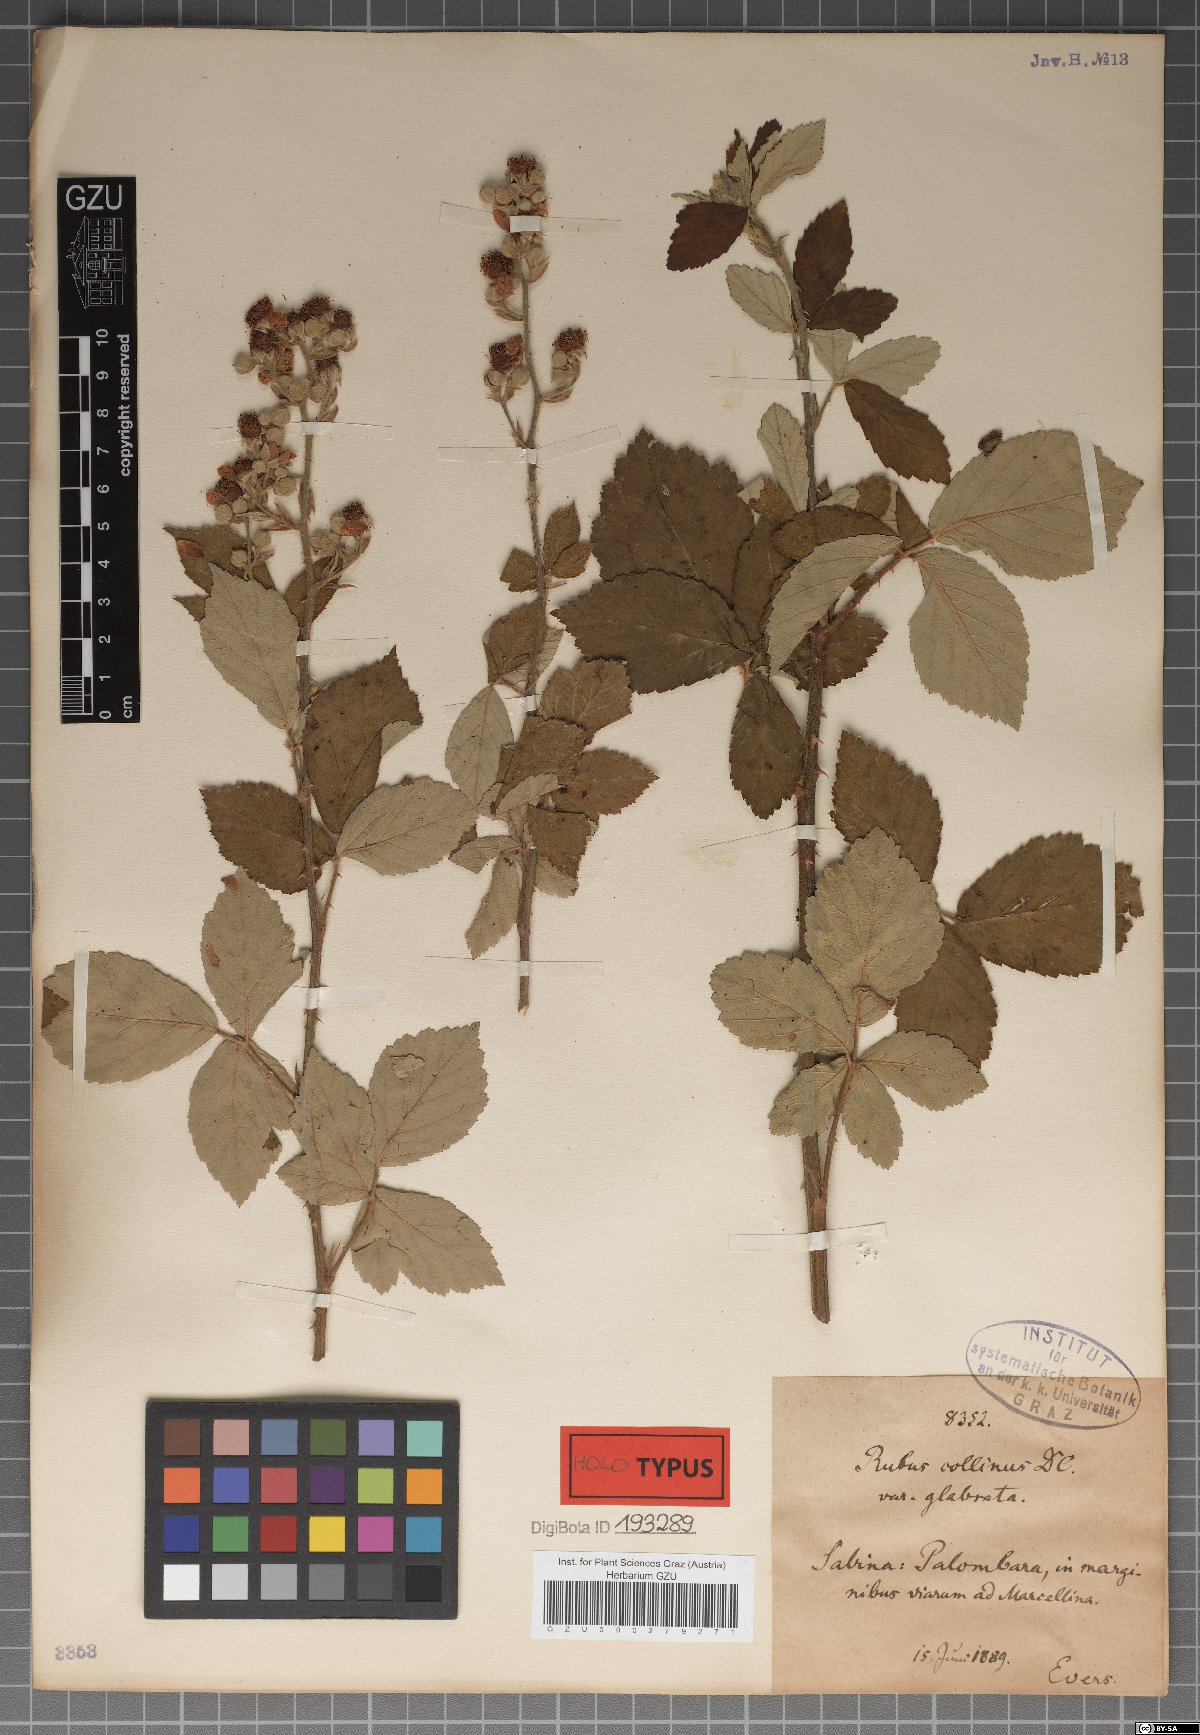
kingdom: Plantae
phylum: Tracheophyta
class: Magnoliopsida
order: Rosales
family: Rosaceae
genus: Rubus
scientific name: Rubus collinus
